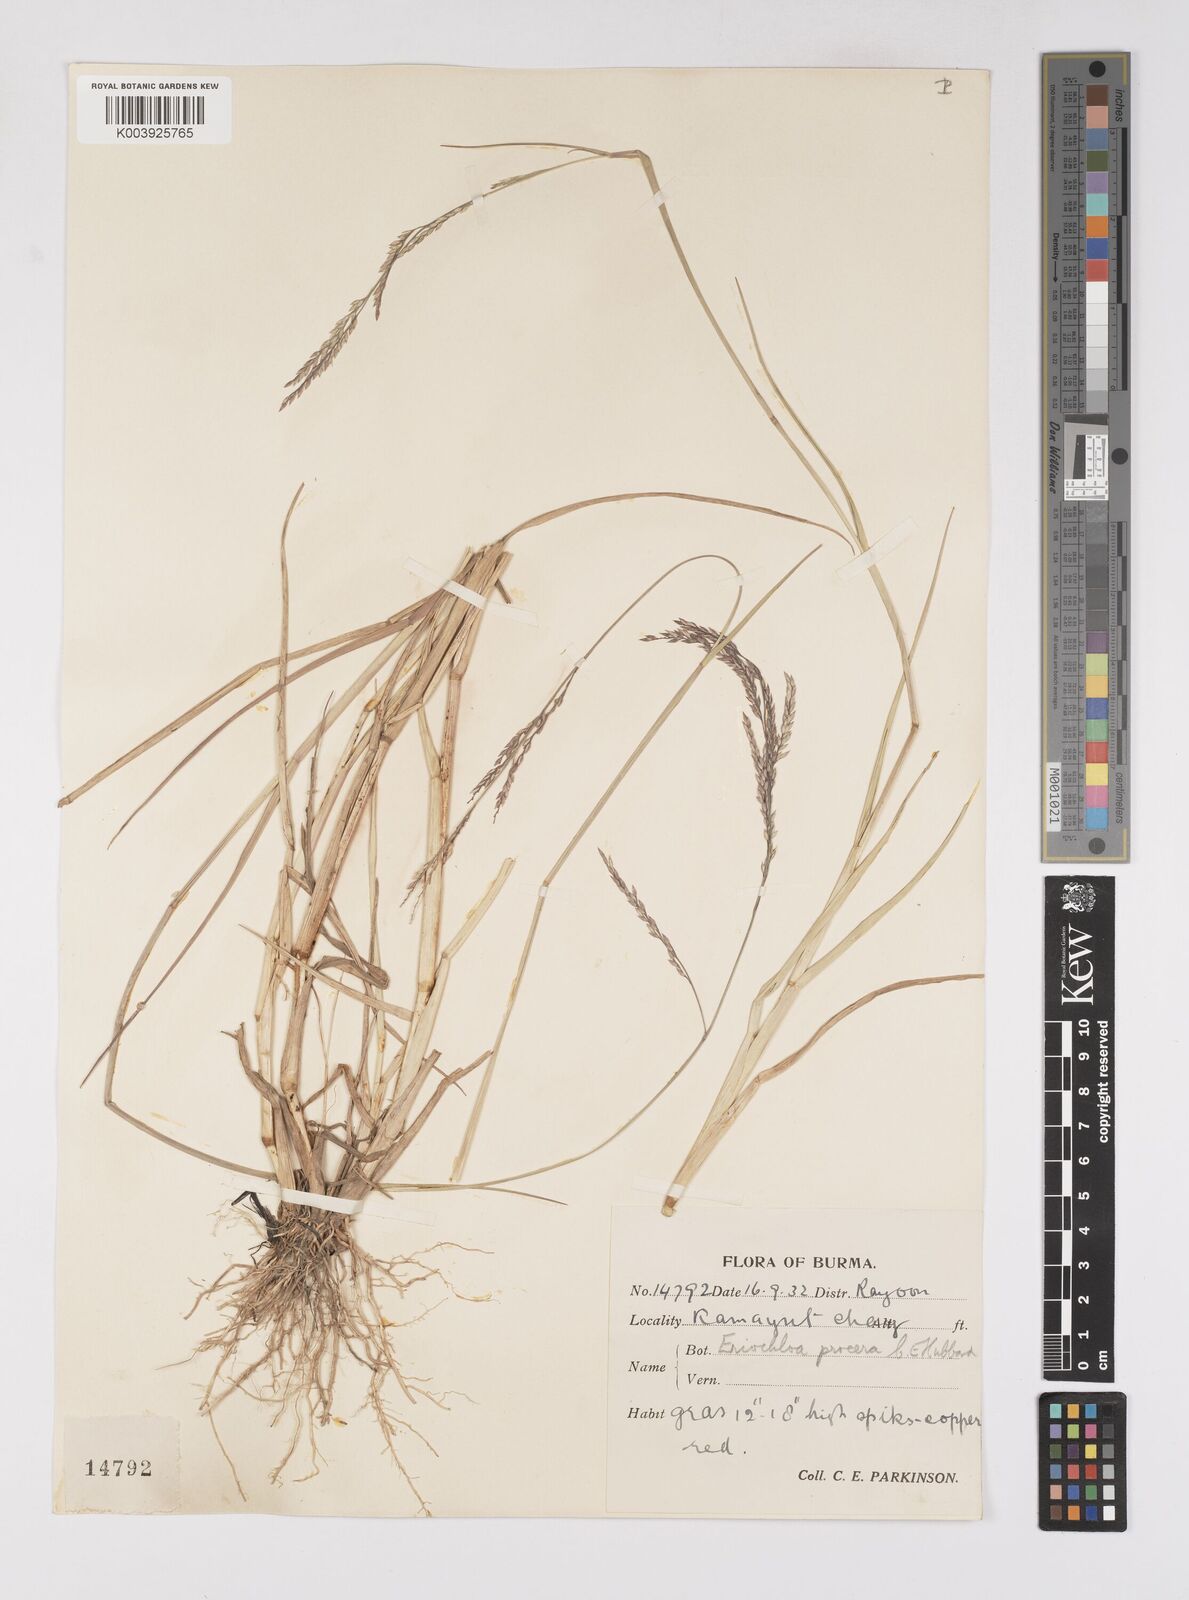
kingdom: Plantae
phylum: Tracheophyta
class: Liliopsida
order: Poales
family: Poaceae
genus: Eriochloa
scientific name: Eriochloa procera
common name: Spring grass
